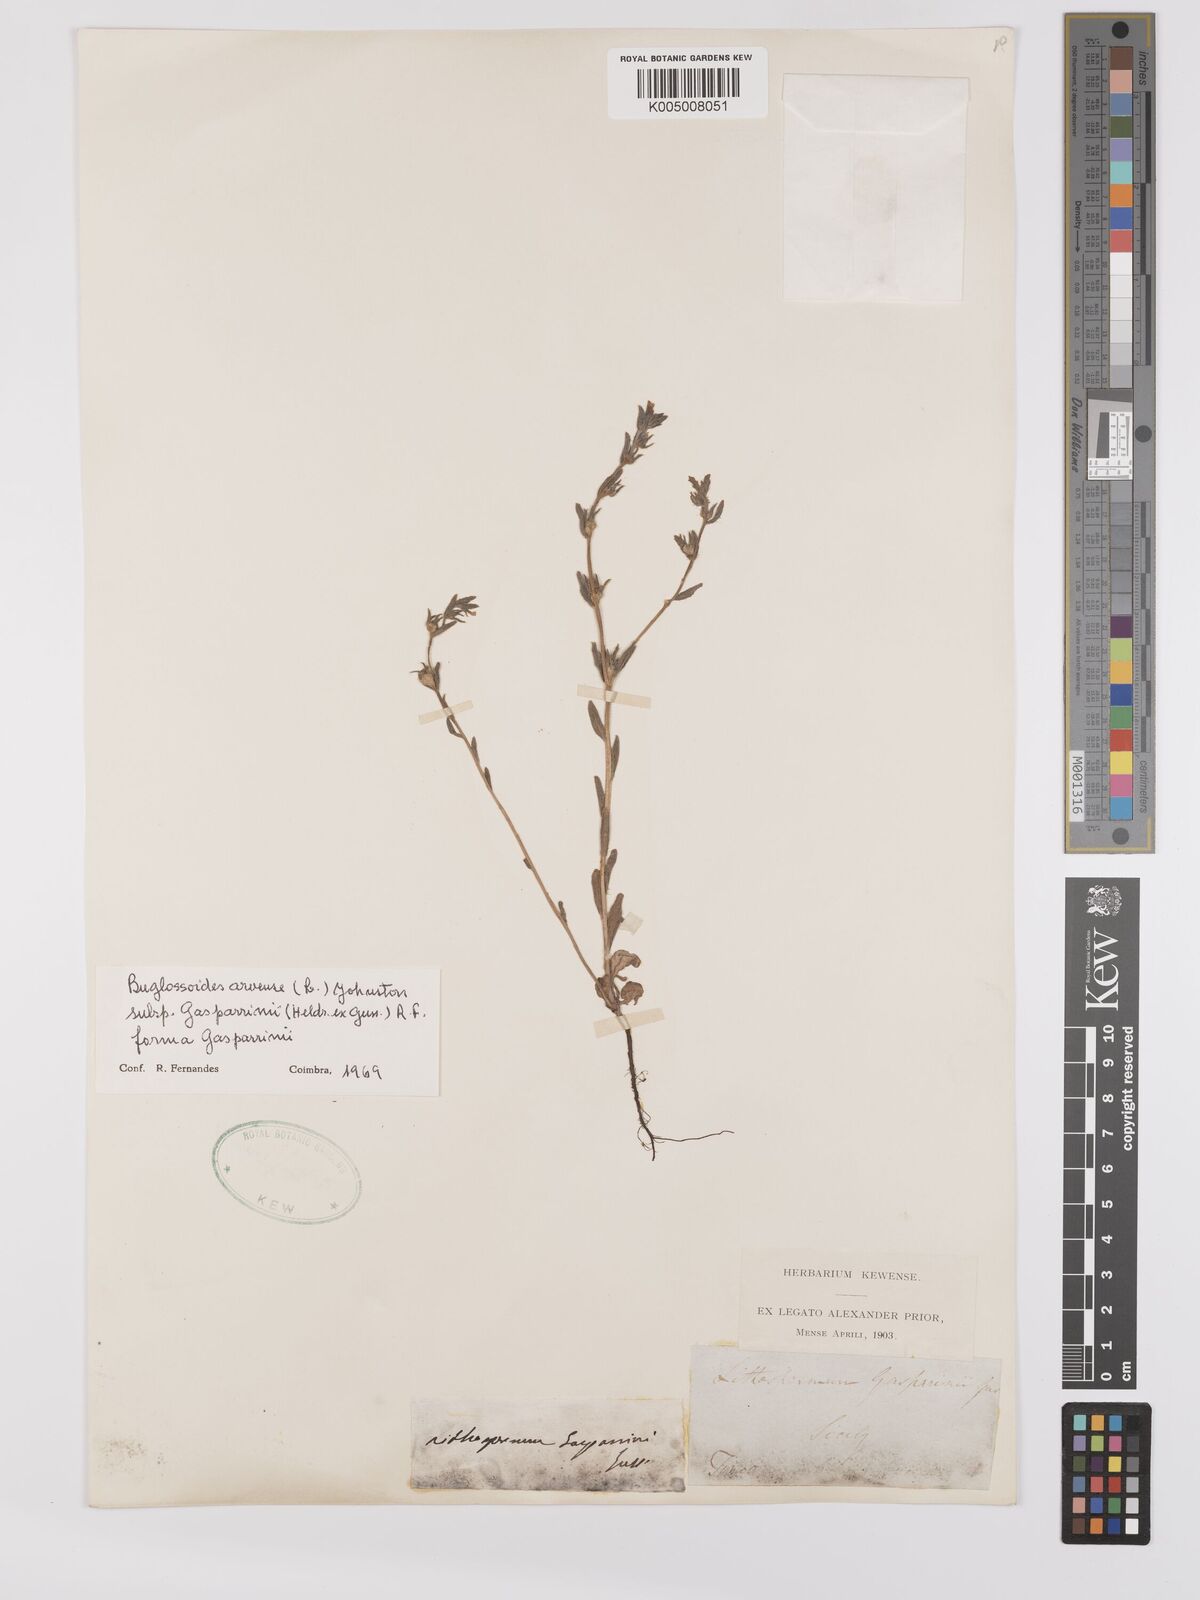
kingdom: Plantae
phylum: Tracheophyta
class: Magnoliopsida
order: Boraginales
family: Boraginaceae
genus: Buglossoides
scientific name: Buglossoides incrassata
